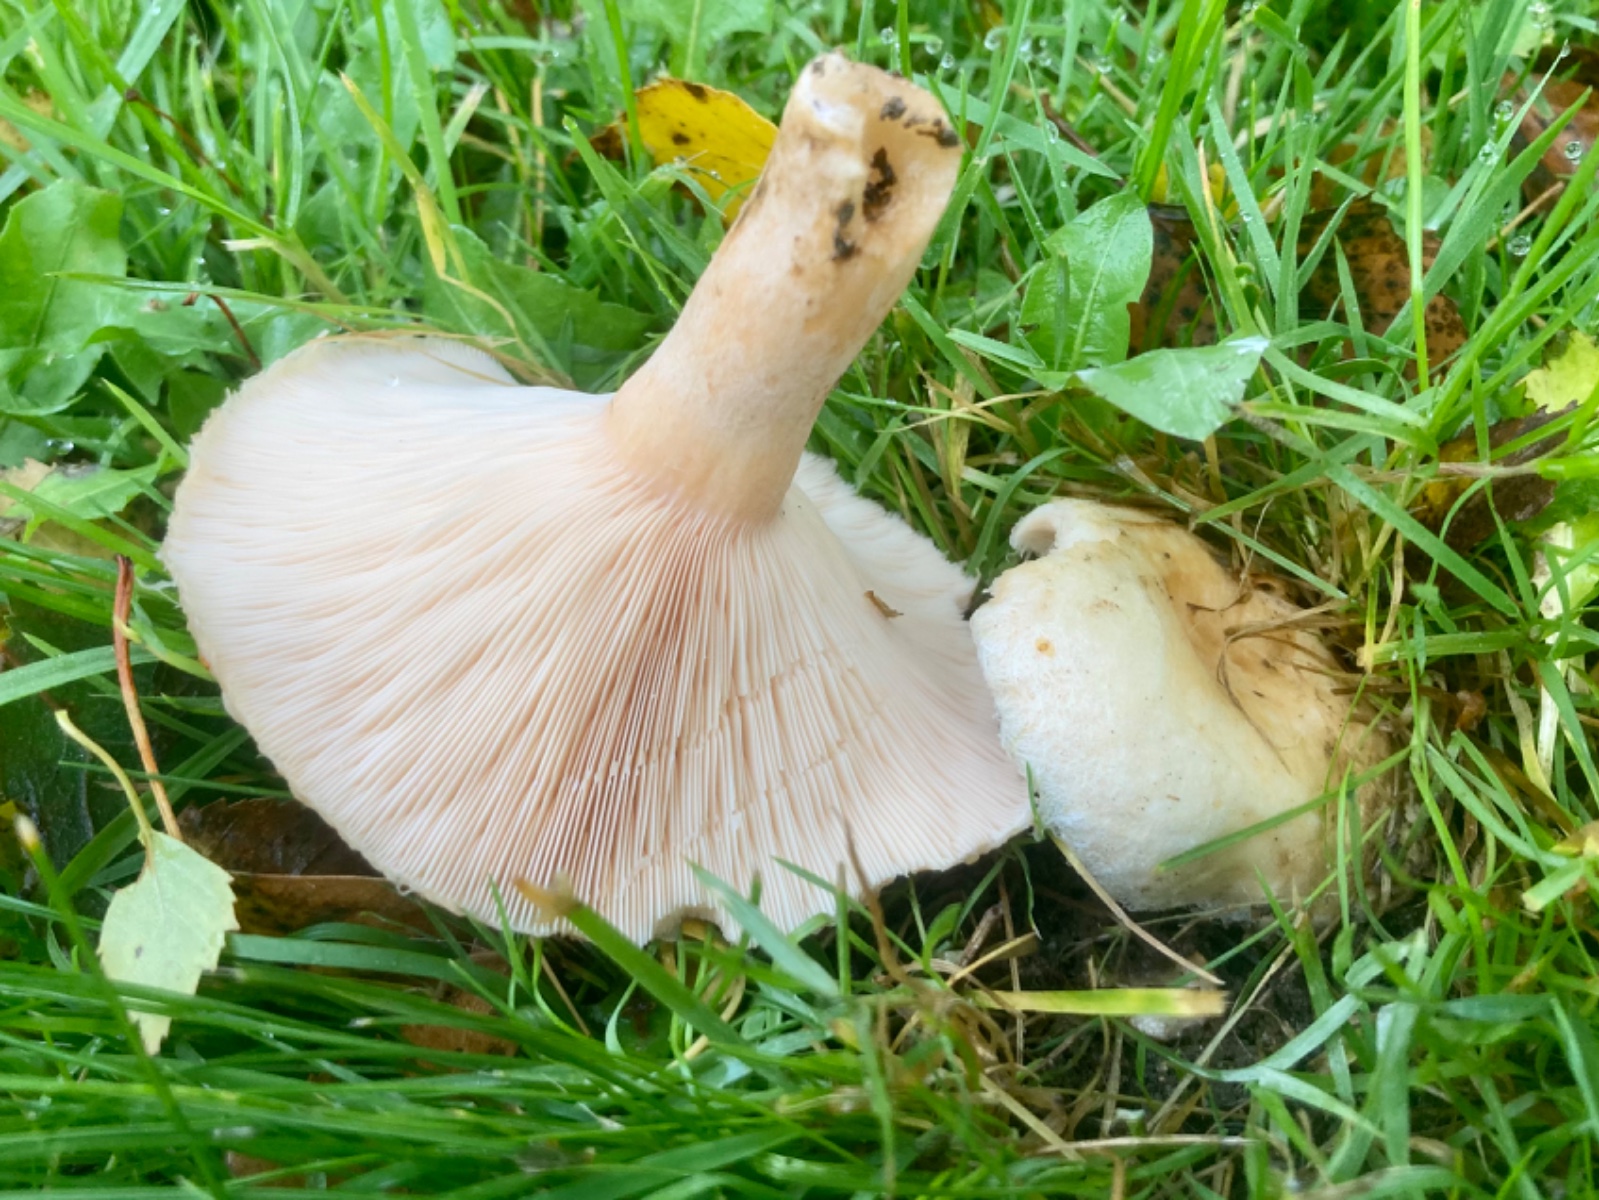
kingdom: Fungi
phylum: Basidiomycota
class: Agaricomycetes
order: Russulales
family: Russulaceae
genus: Lactarius
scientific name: Lactarius pubescens
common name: dunet mælkehat
